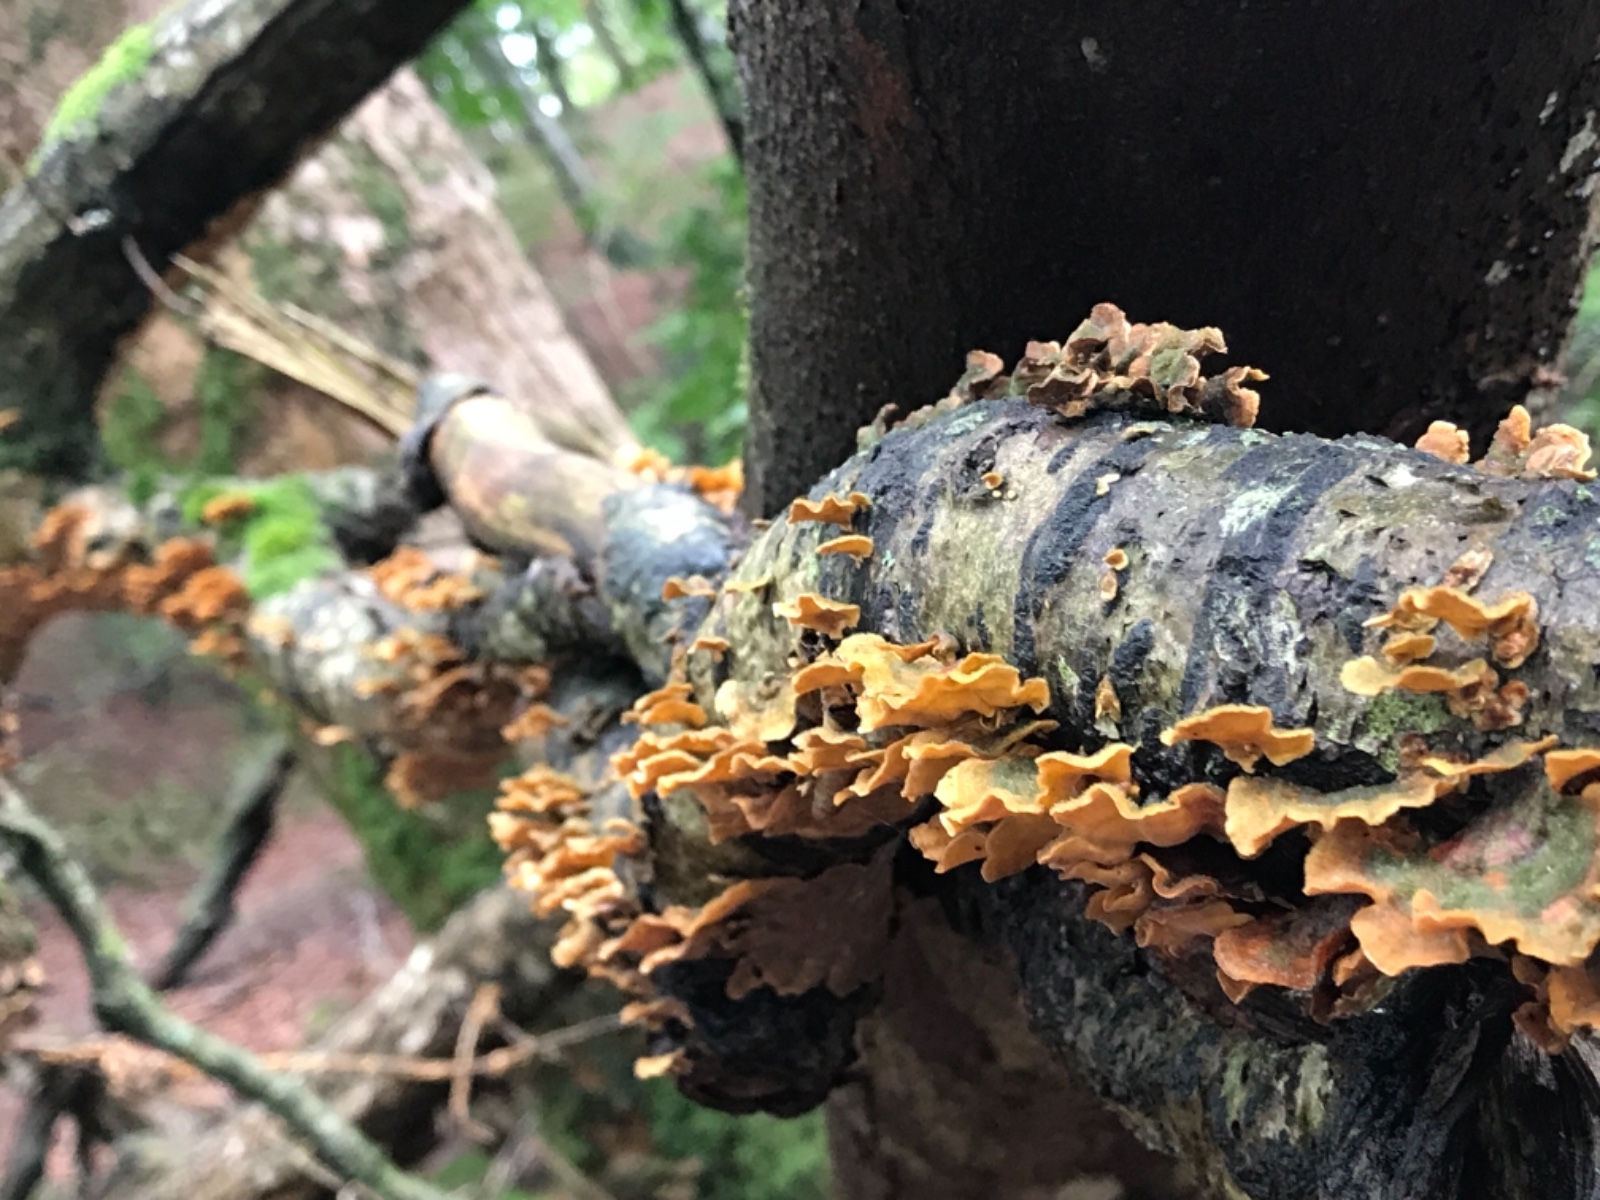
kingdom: Fungi
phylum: Basidiomycota
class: Agaricomycetes
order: Polyporales
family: Polyporaceae
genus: Trametes
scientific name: Trametes versicolor
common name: broget læderporesvamp
